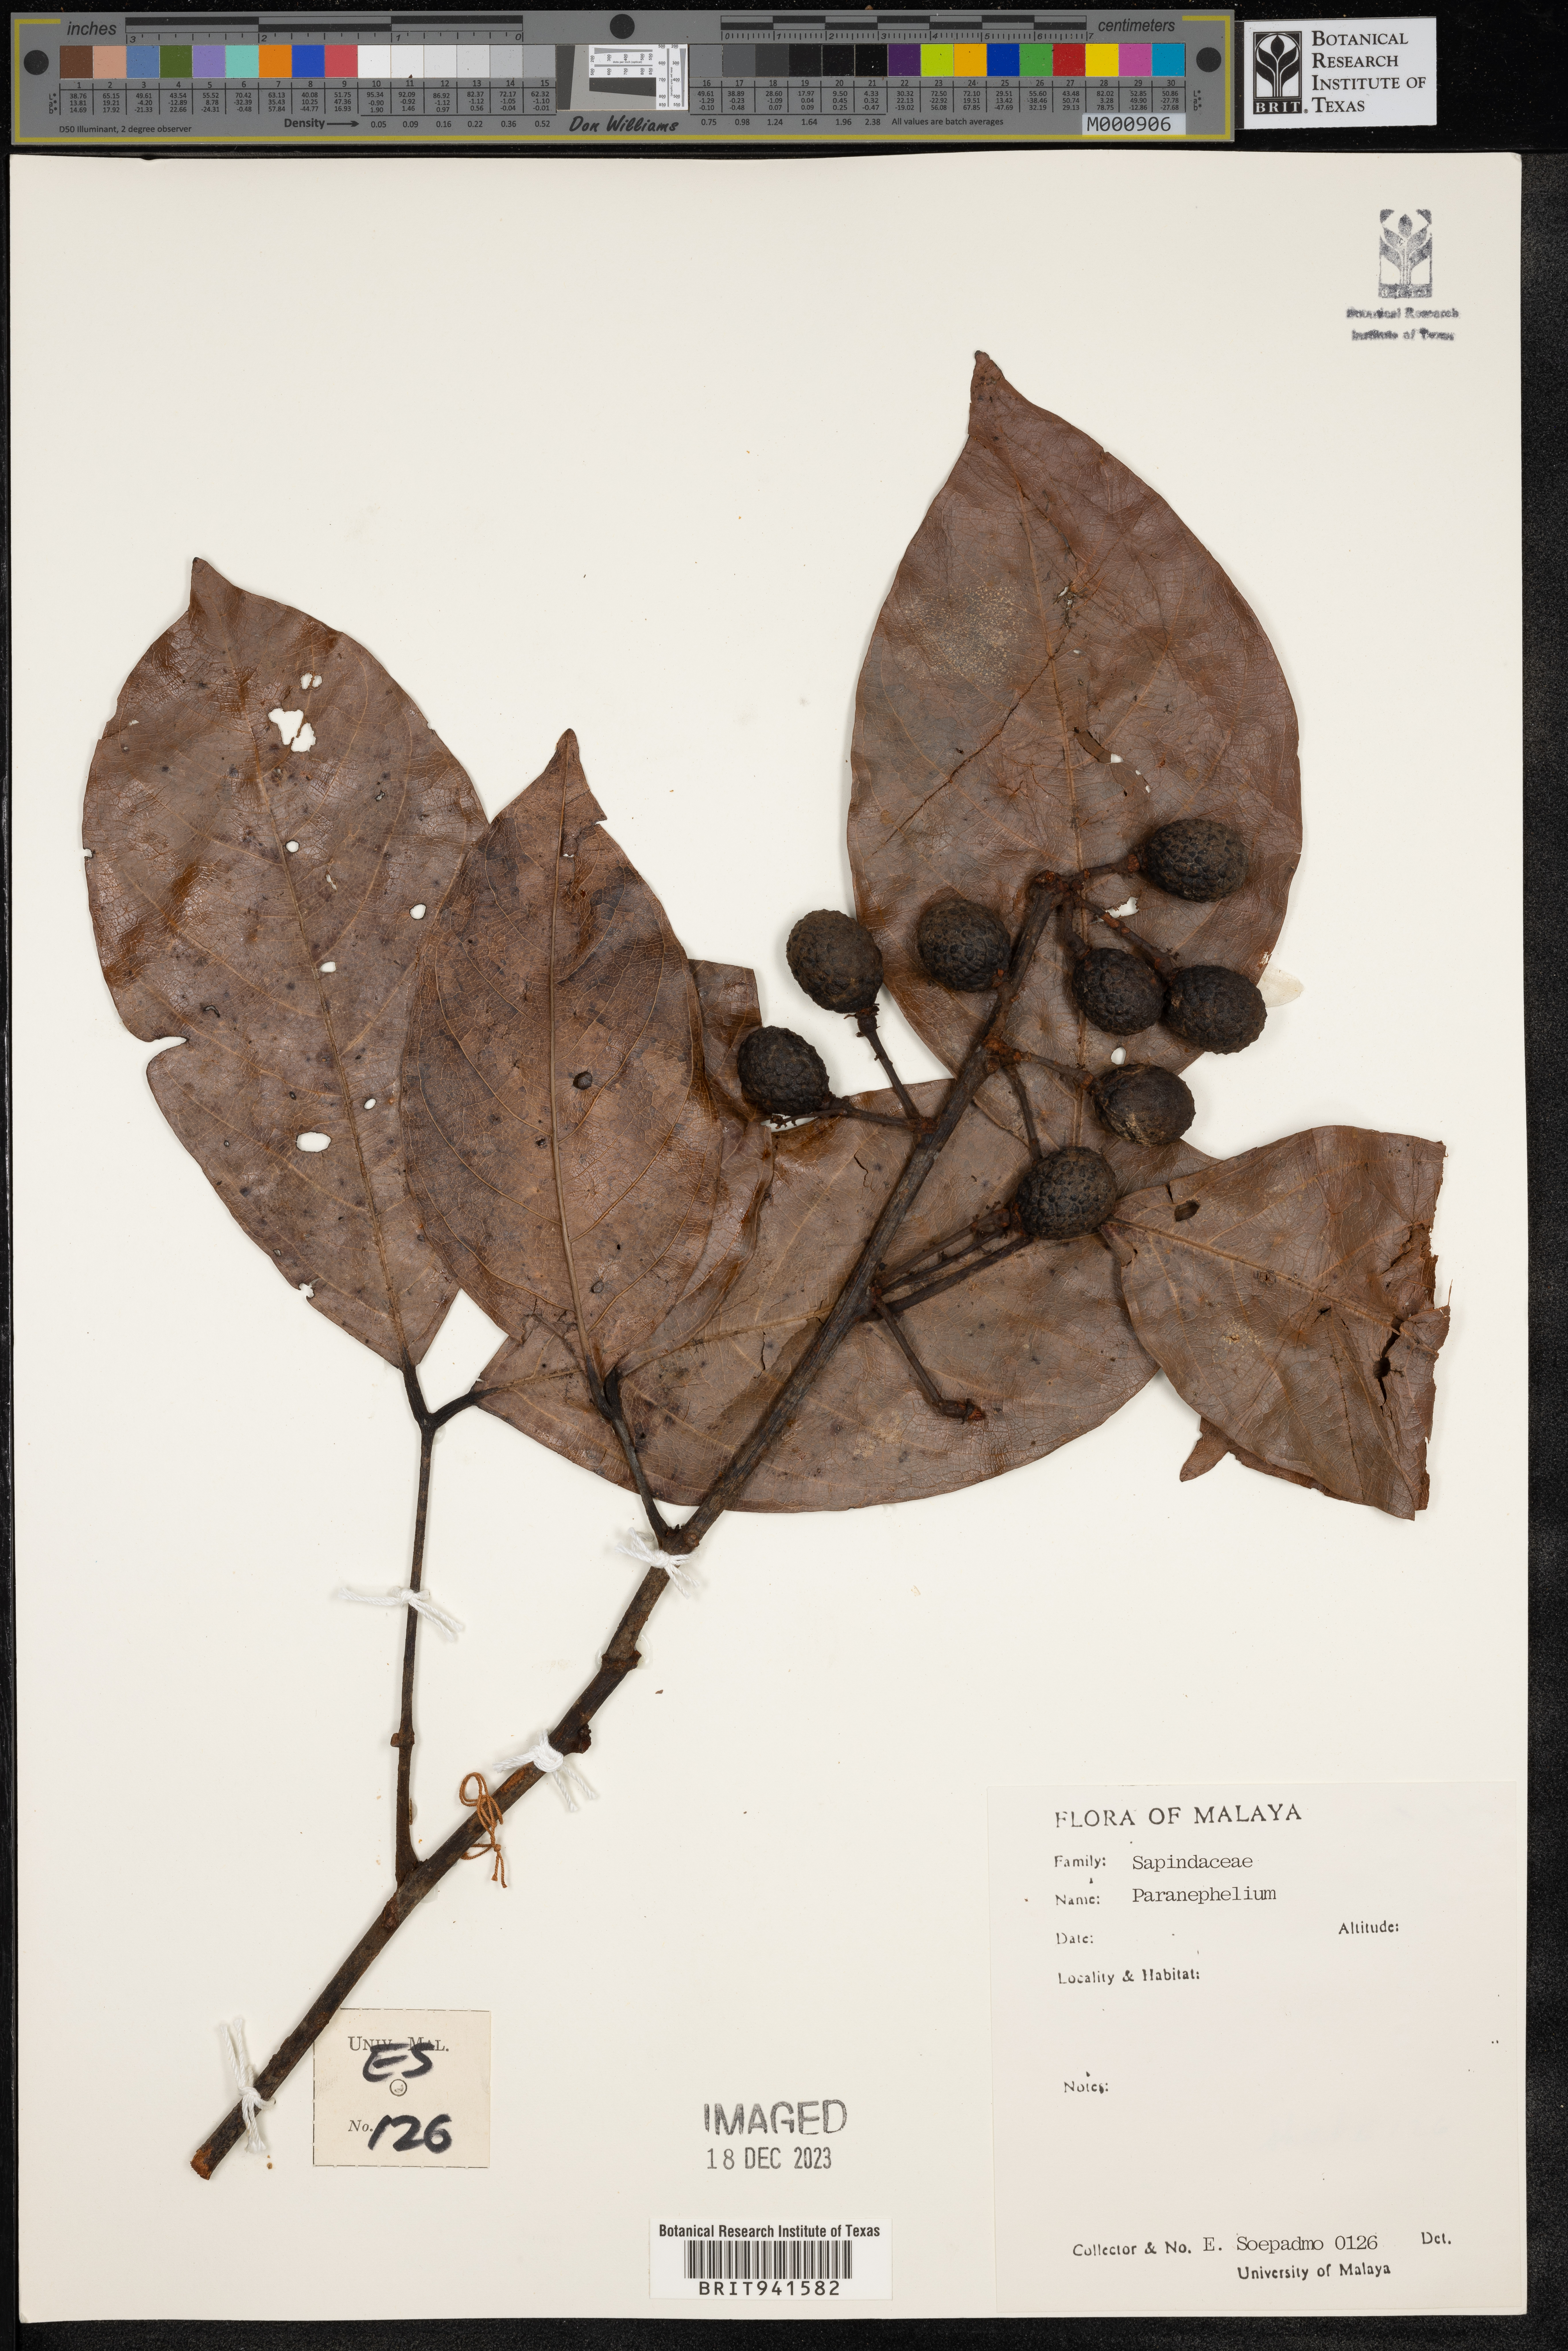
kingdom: Plantae
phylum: Tracheophyta
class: Magnoliopsida
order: Sapindales
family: Sapindaceae
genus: Paranephelium
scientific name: Paranephelium
